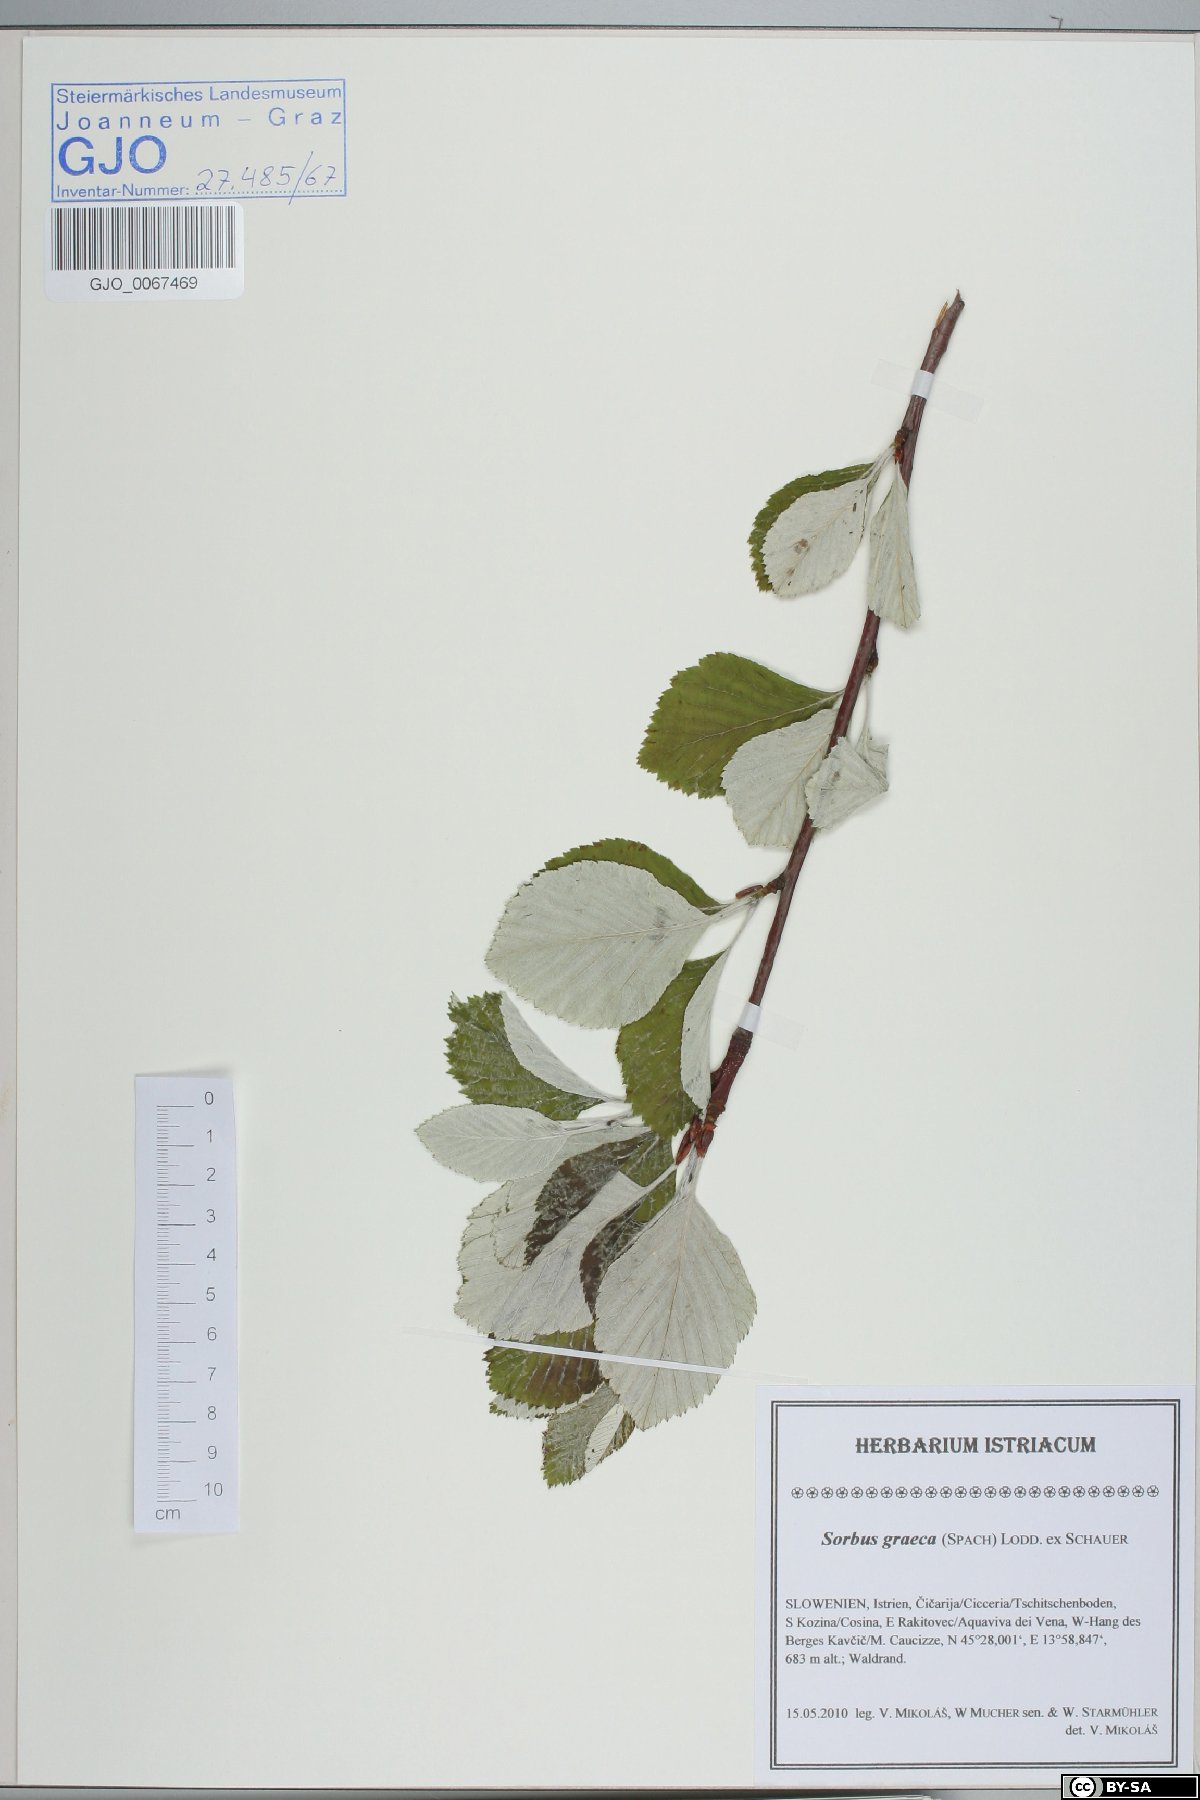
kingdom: Plantae
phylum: Tracheophyta
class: Magnoliopsida
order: Rosales
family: Rosaceae
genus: Aria
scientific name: Aria graeca
